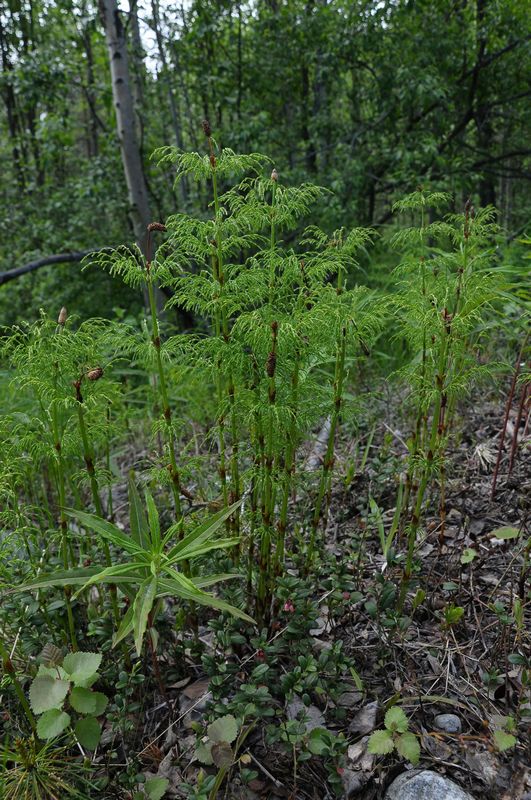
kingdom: Plantae
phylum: Tracheophyta
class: Polypodiopsida
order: Equisetales
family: Equisetaceae
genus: Equisetum
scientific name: Equisetum sylvaticum
